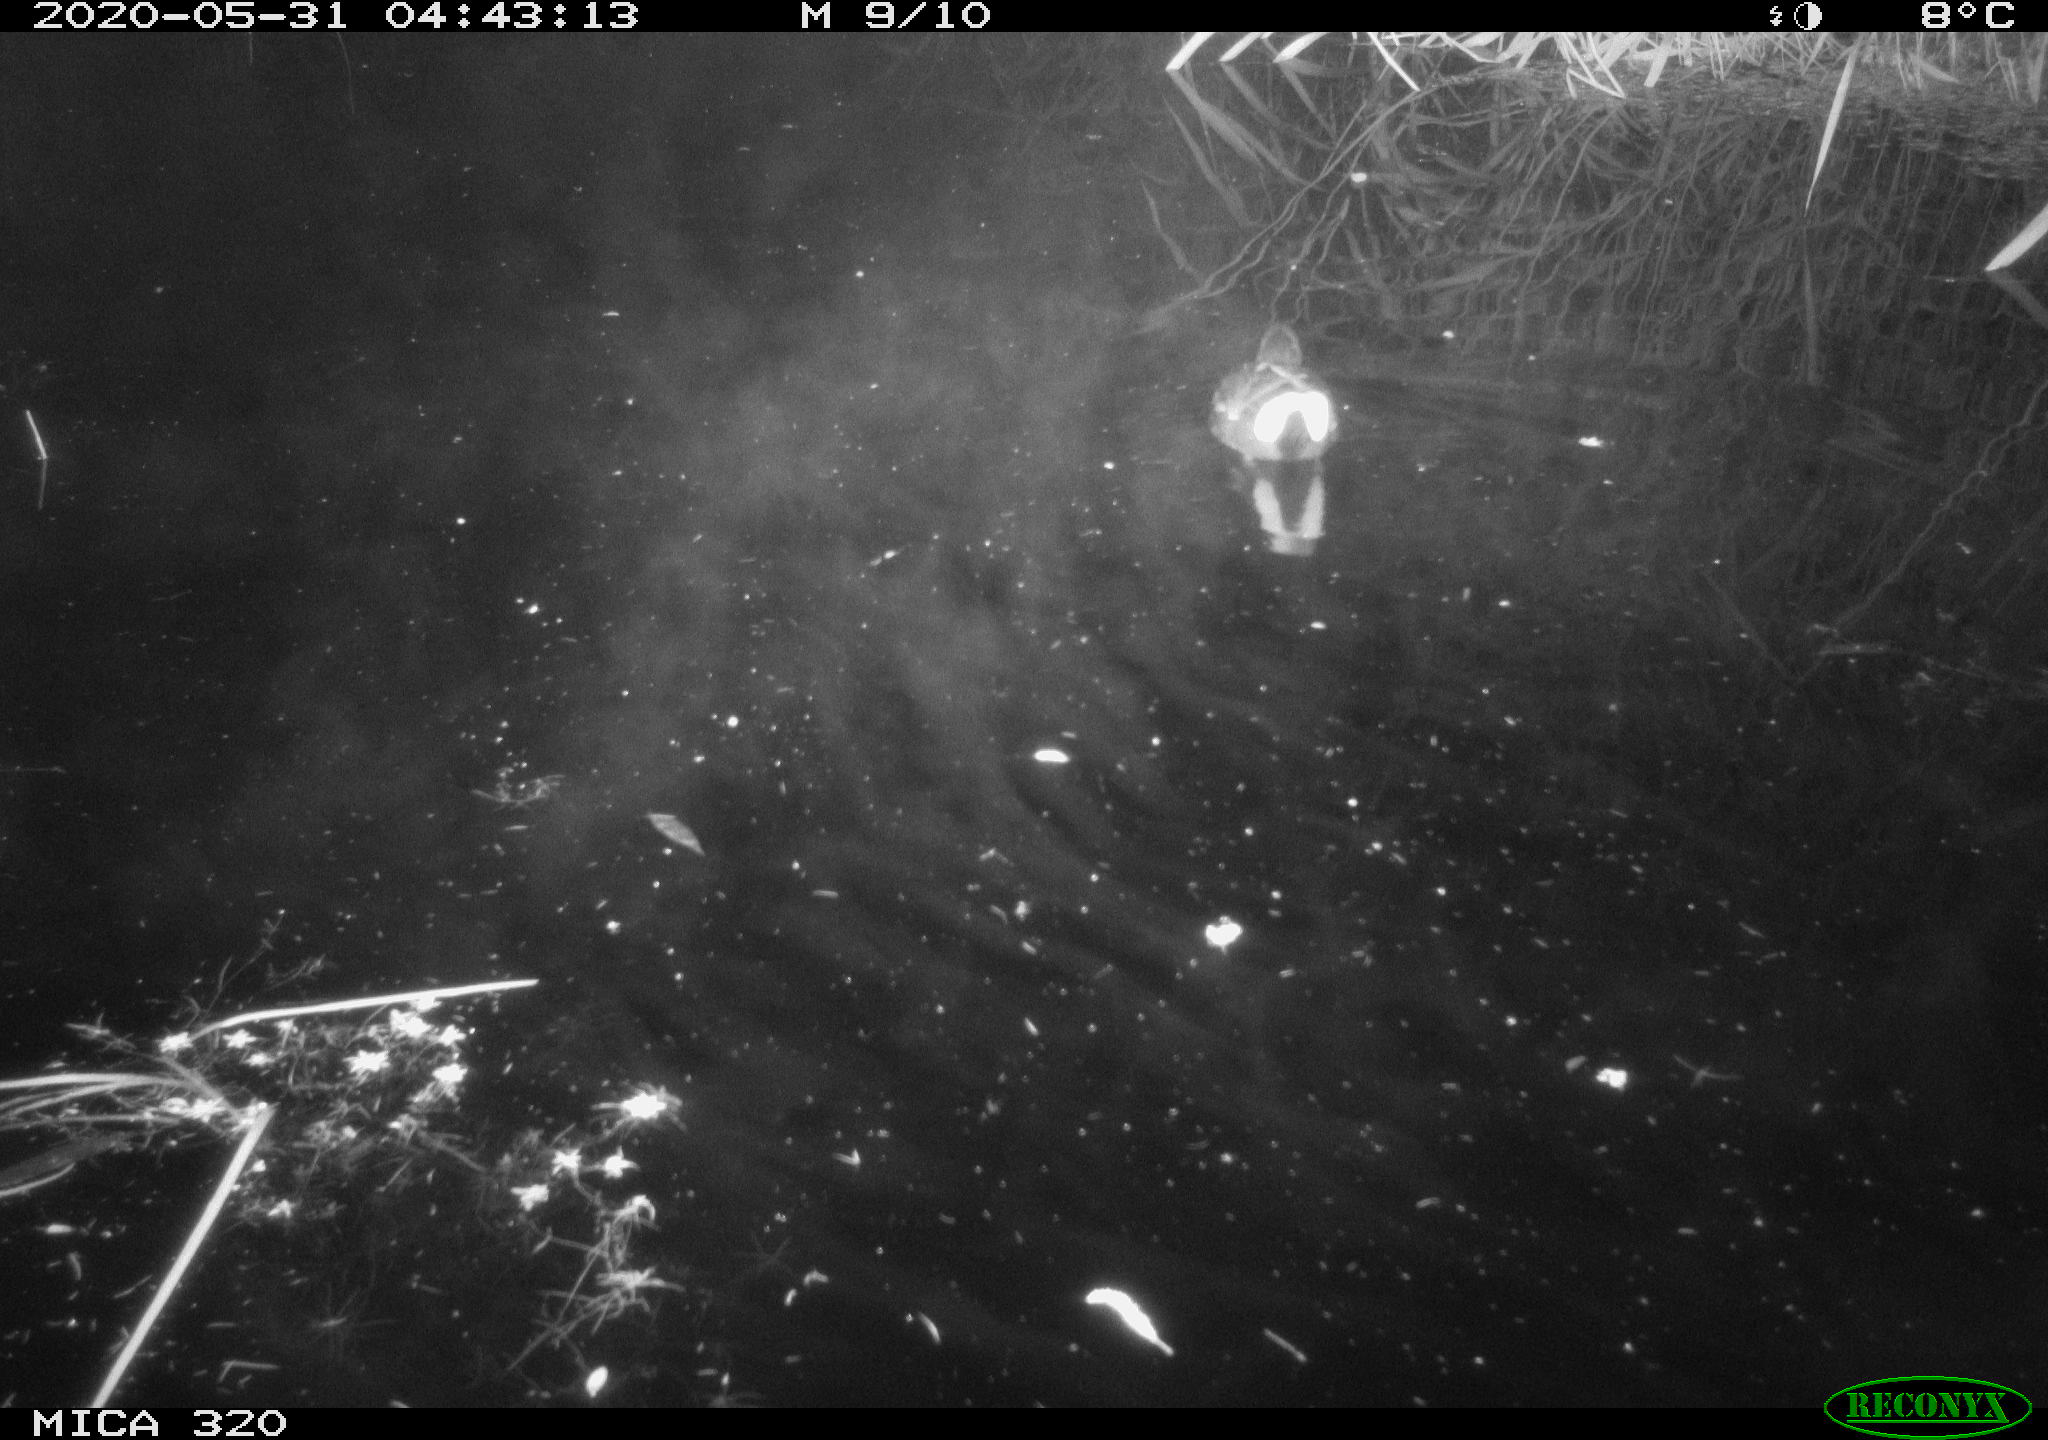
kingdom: Animalia
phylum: Chordata
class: Aves
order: Gruiformes
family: Rallidae
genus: Gallinula
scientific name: Gallinula chloropus
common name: Common moorhen
